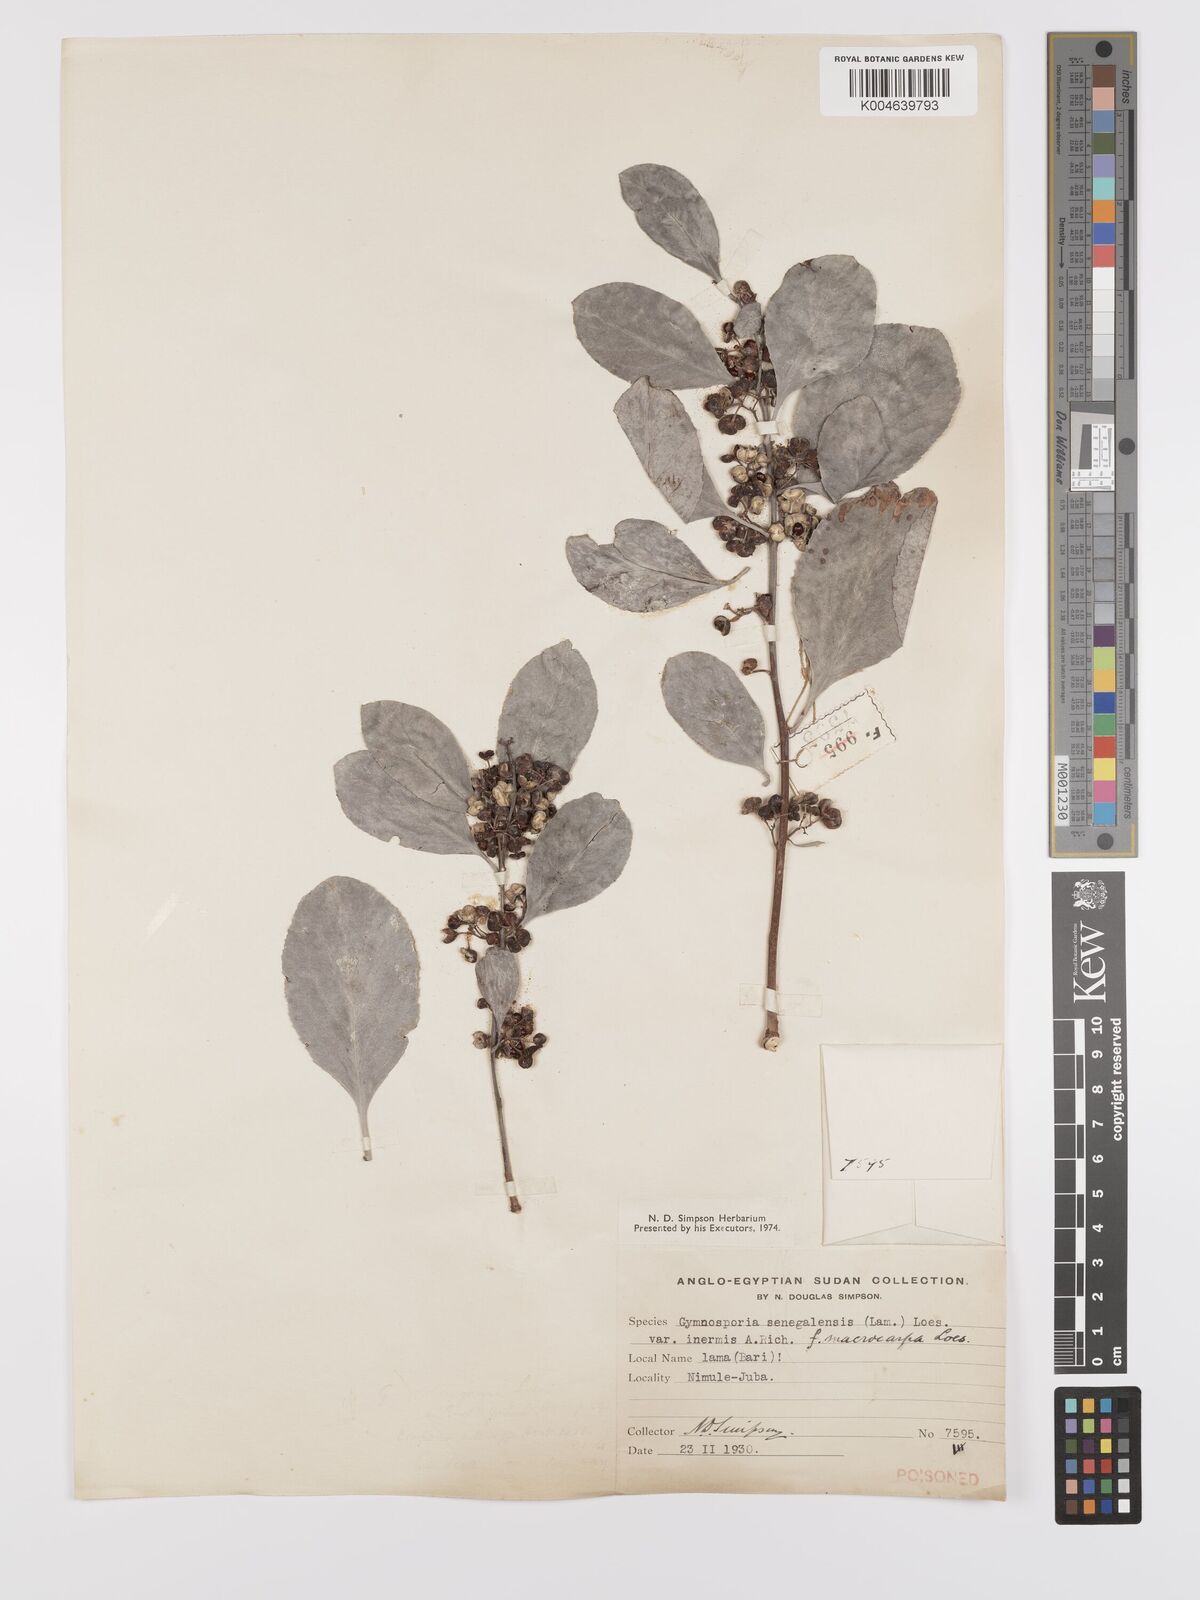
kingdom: Plantae
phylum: Tracheophyta
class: Magnoliopsida
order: Celastrales
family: Celastraceae
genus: Gymnosporia
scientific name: Gymnosporia senegalensis
